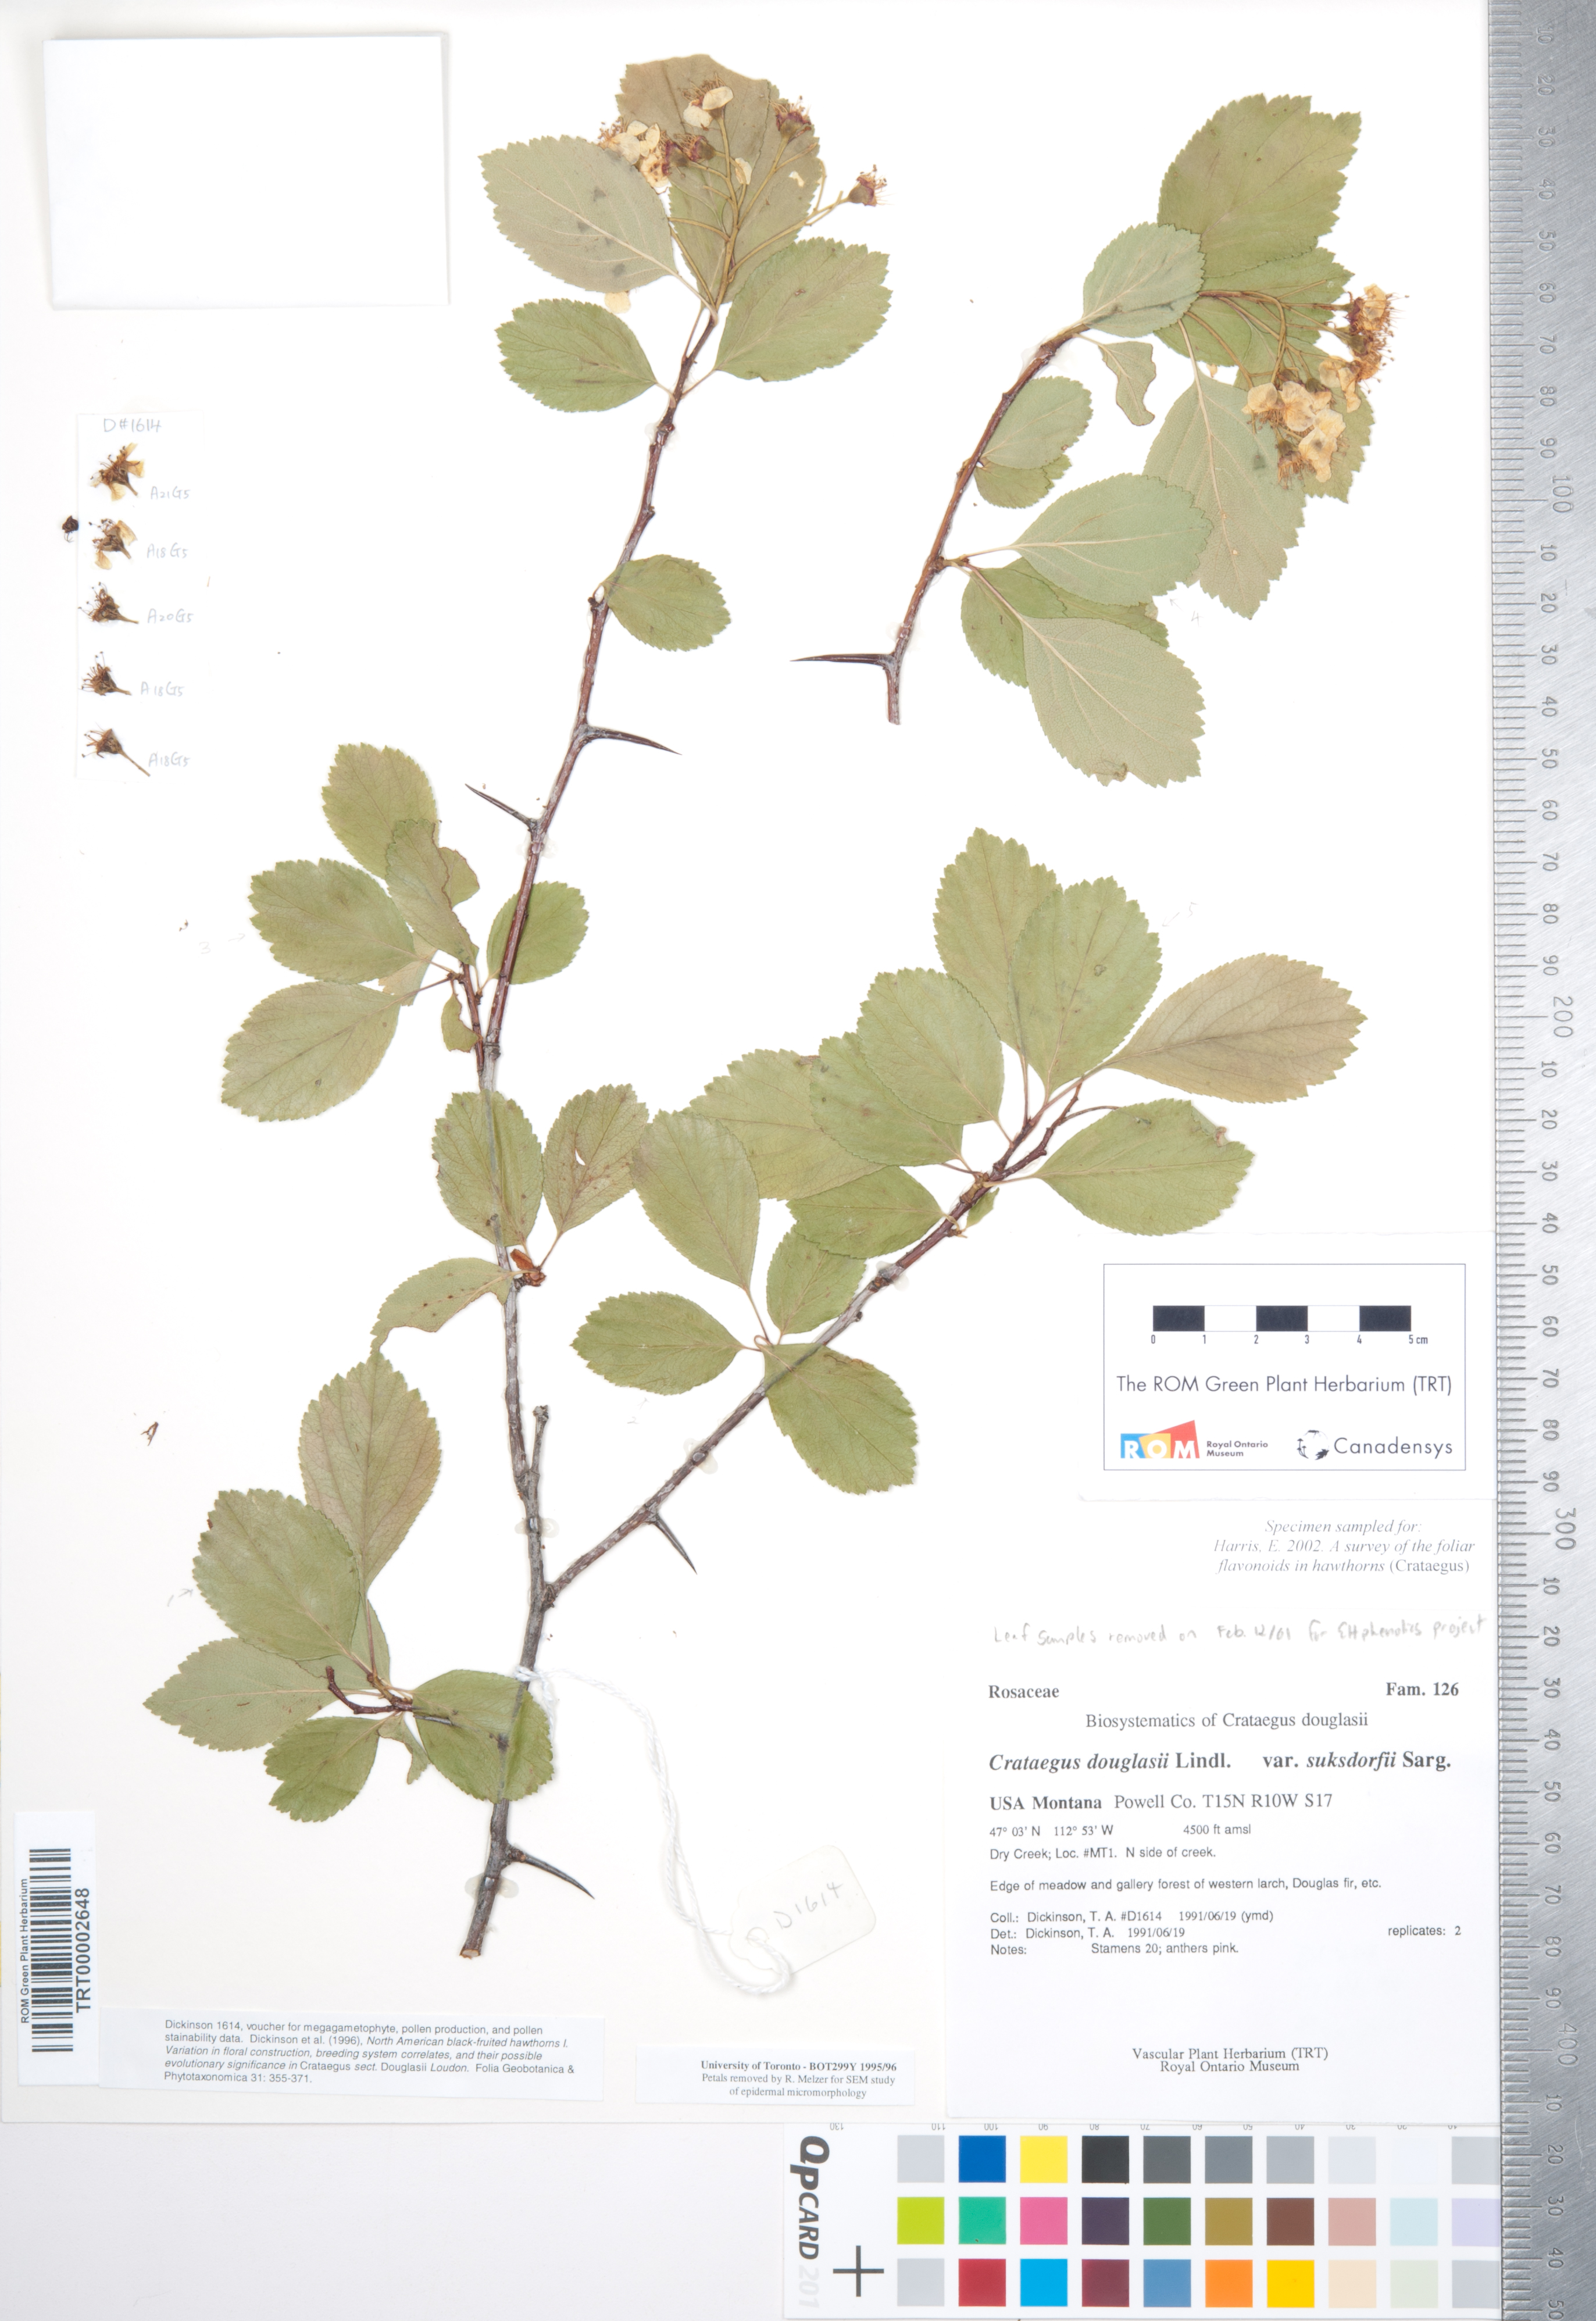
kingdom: Plantae
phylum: Tracheophyta
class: Magnoliopsida
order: Rosales
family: Rosaceae
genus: Crataegus
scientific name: Crataegus gaylussacia
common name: Huckleberry hawthorn
